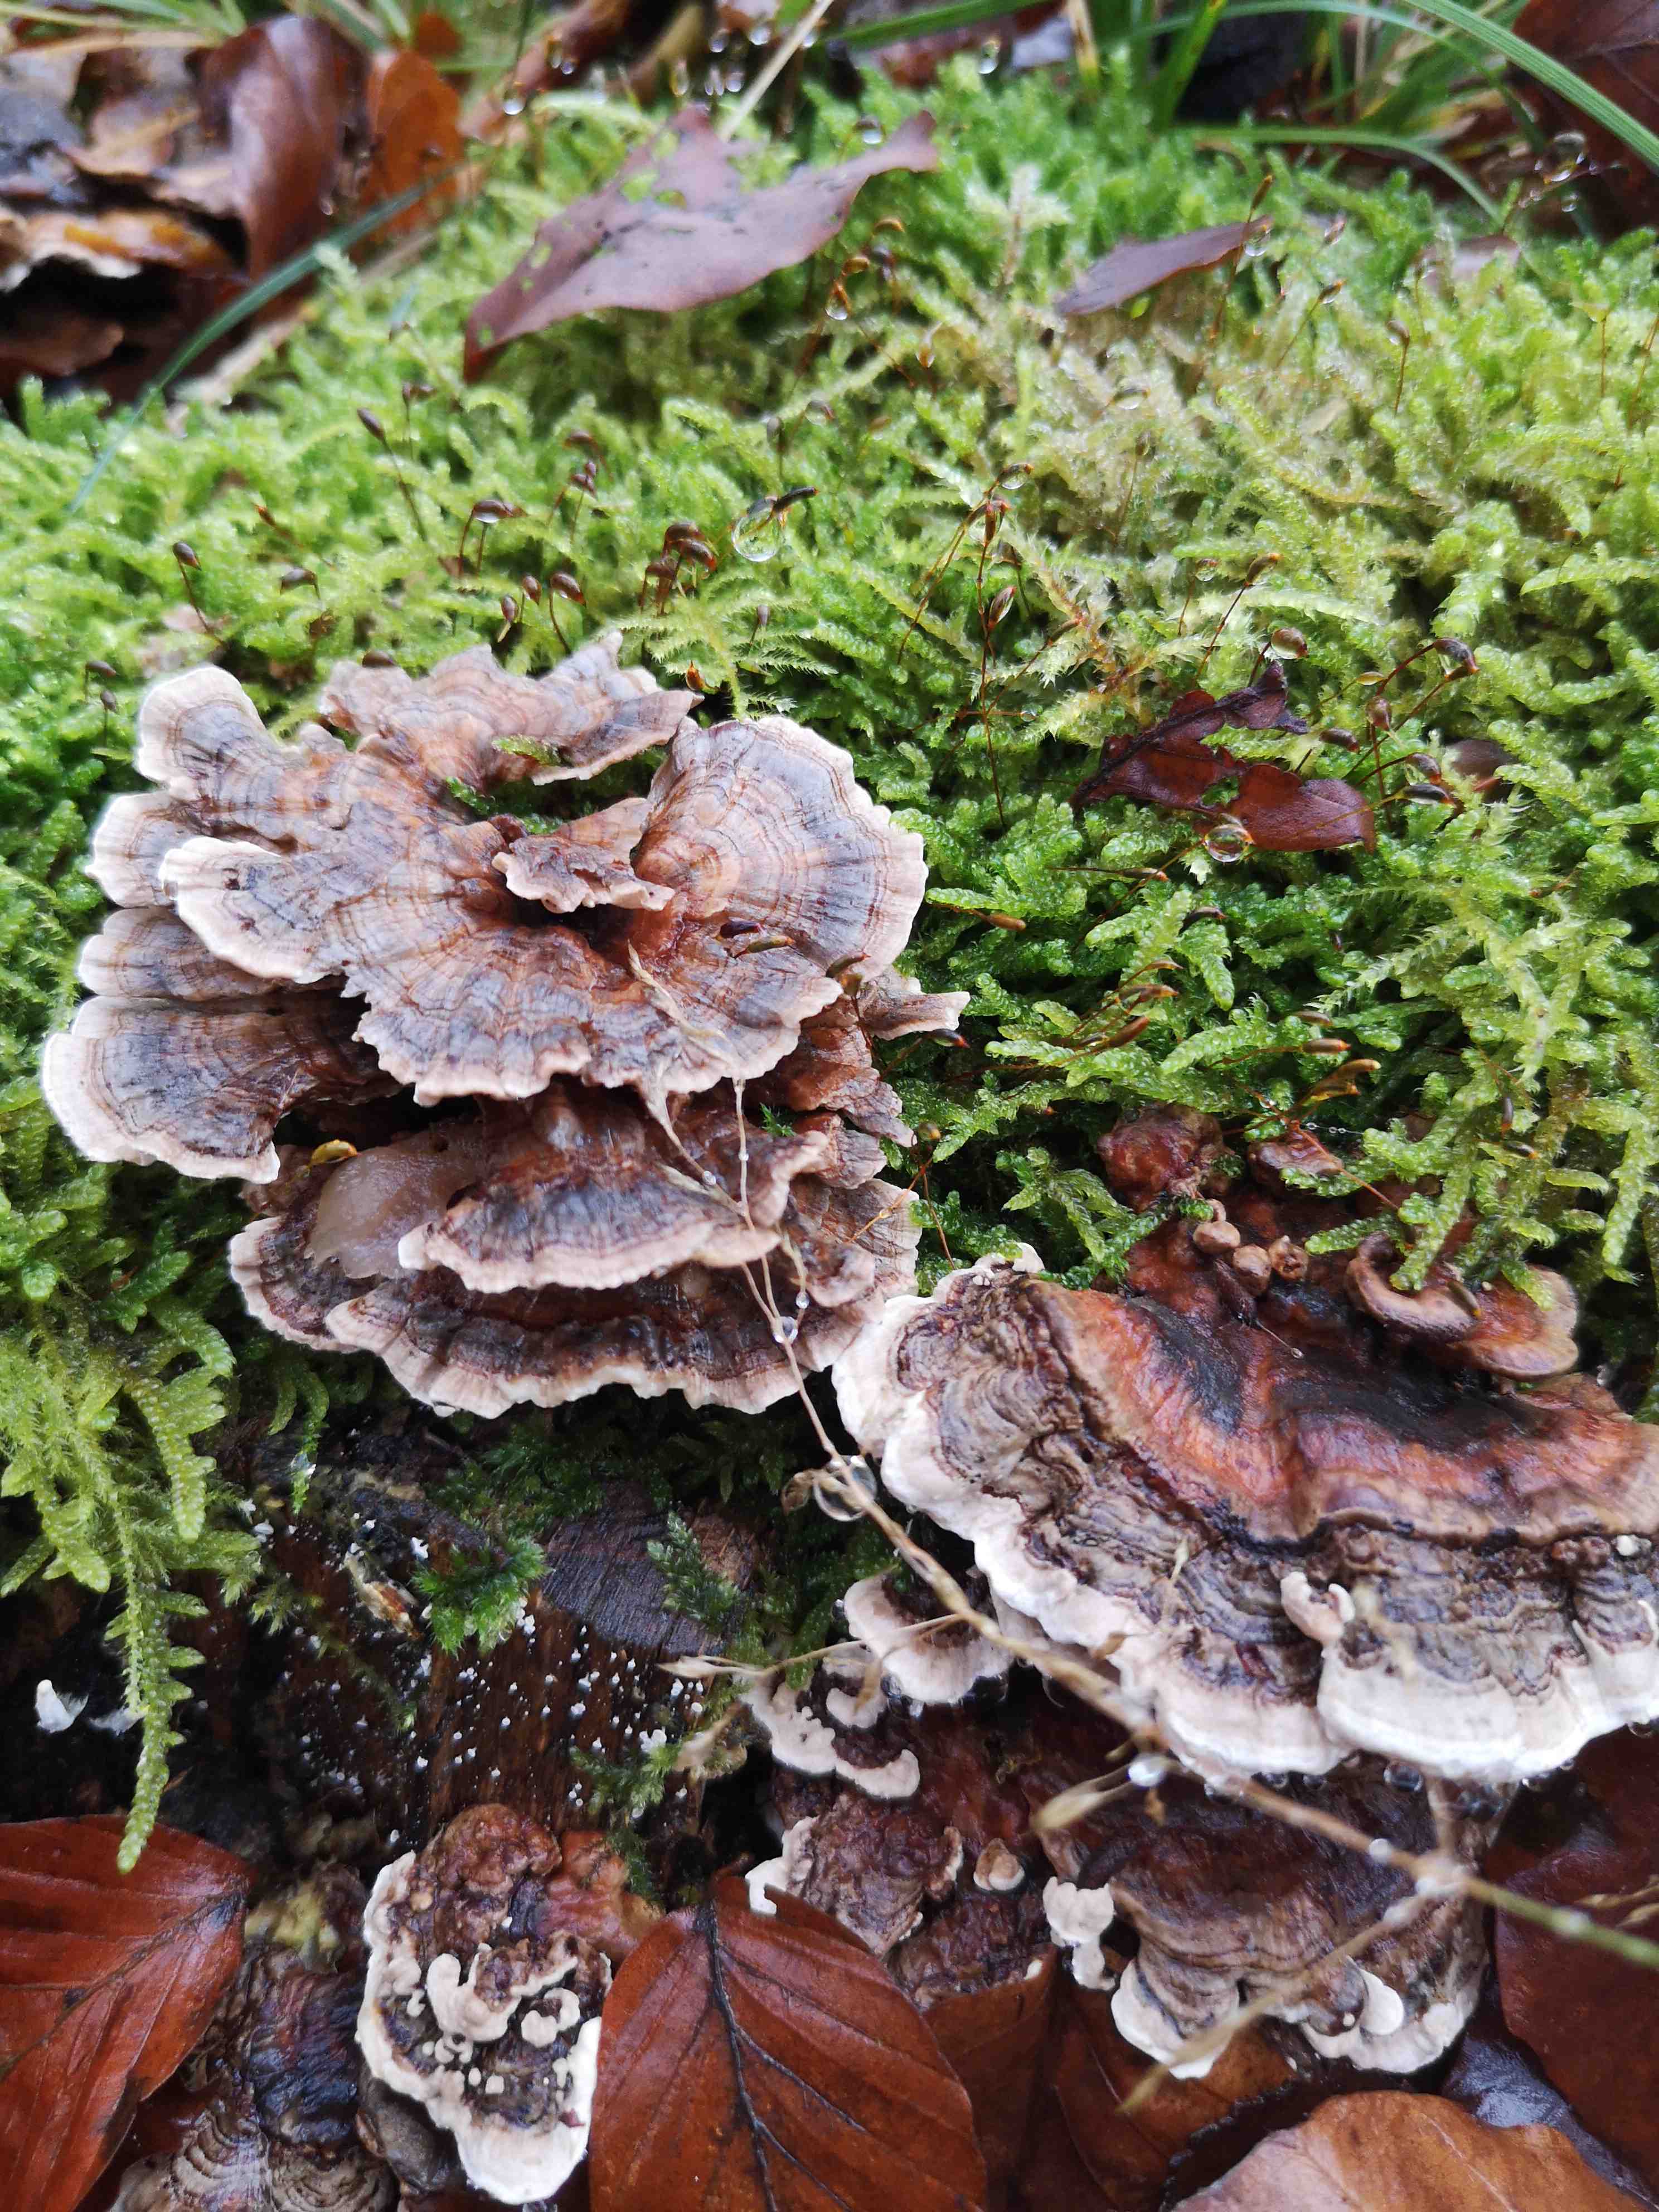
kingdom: Fungi
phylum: Basidiomycota
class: Agaricomycetes
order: Polyporales
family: Polyporaceae
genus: Trametes
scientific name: Trametes versicolor
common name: broget læderporesvamp
